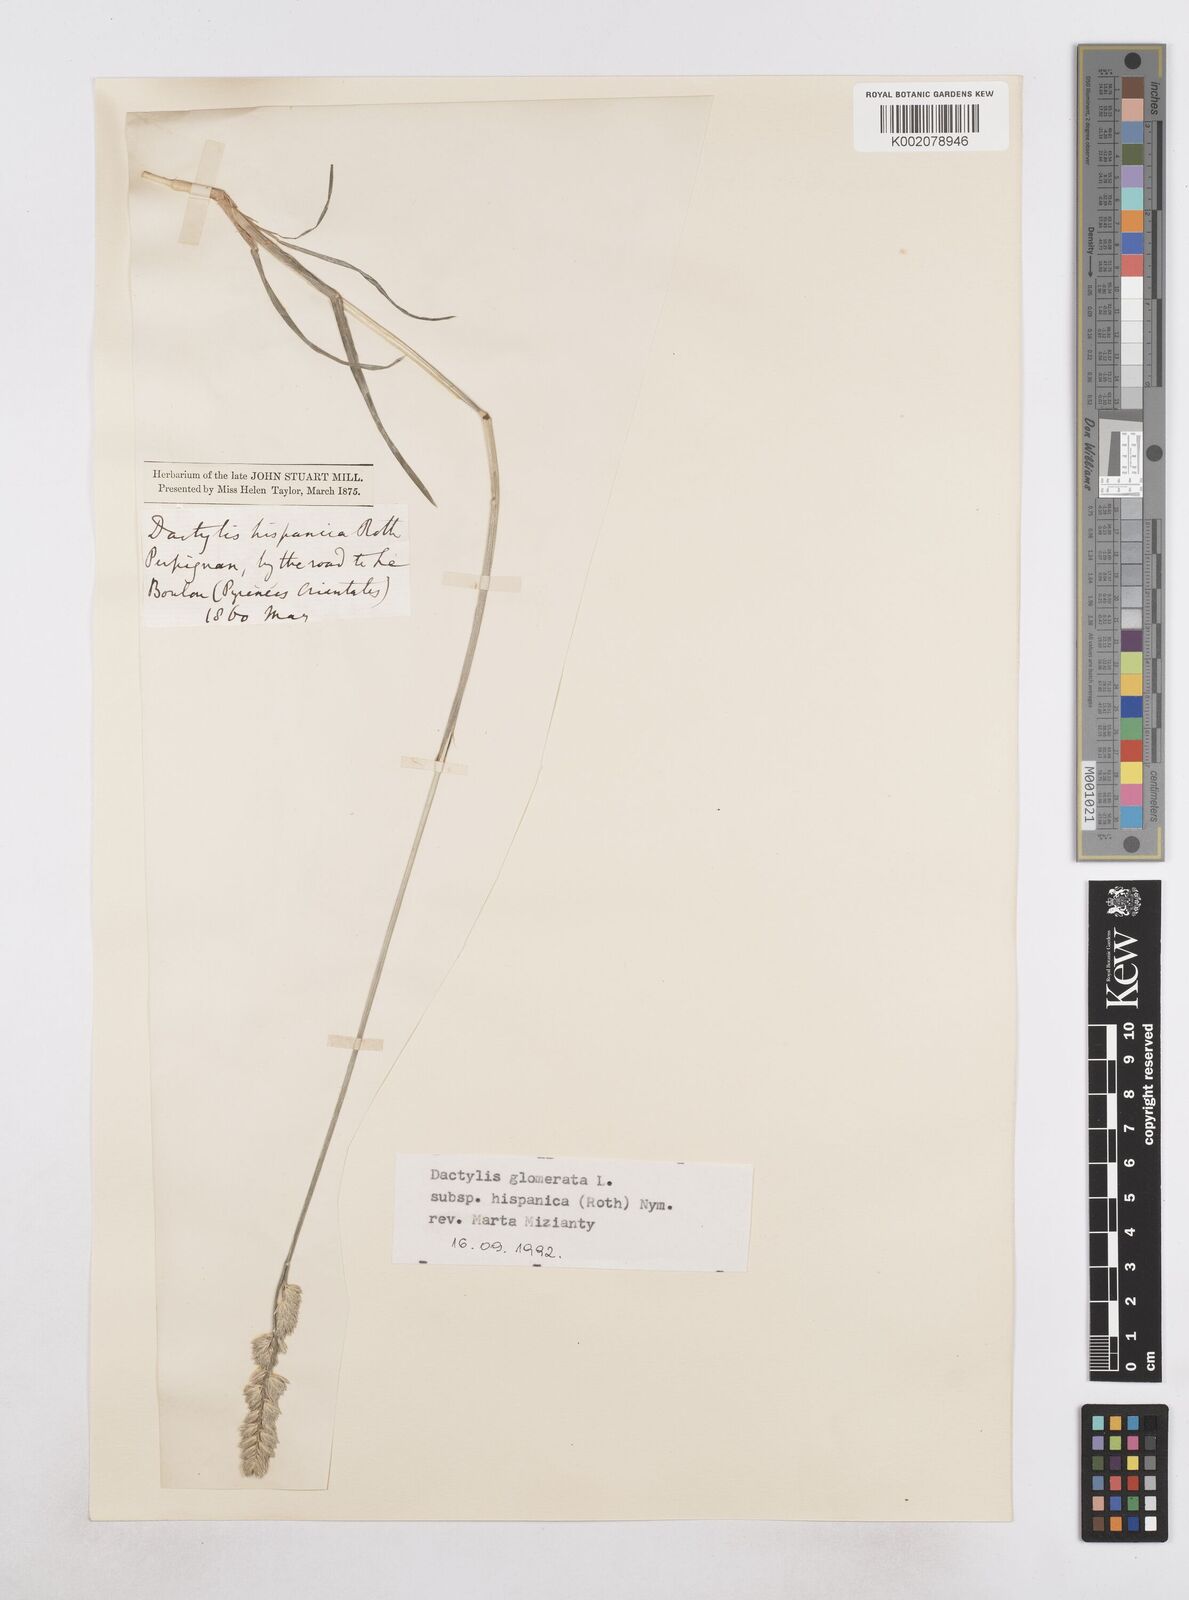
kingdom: Plantae
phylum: Tracheophyta
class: Liliopsida
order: Poales
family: Poaceae
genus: Dactylis
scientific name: Dactylis glomerata
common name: Orchardgrass
